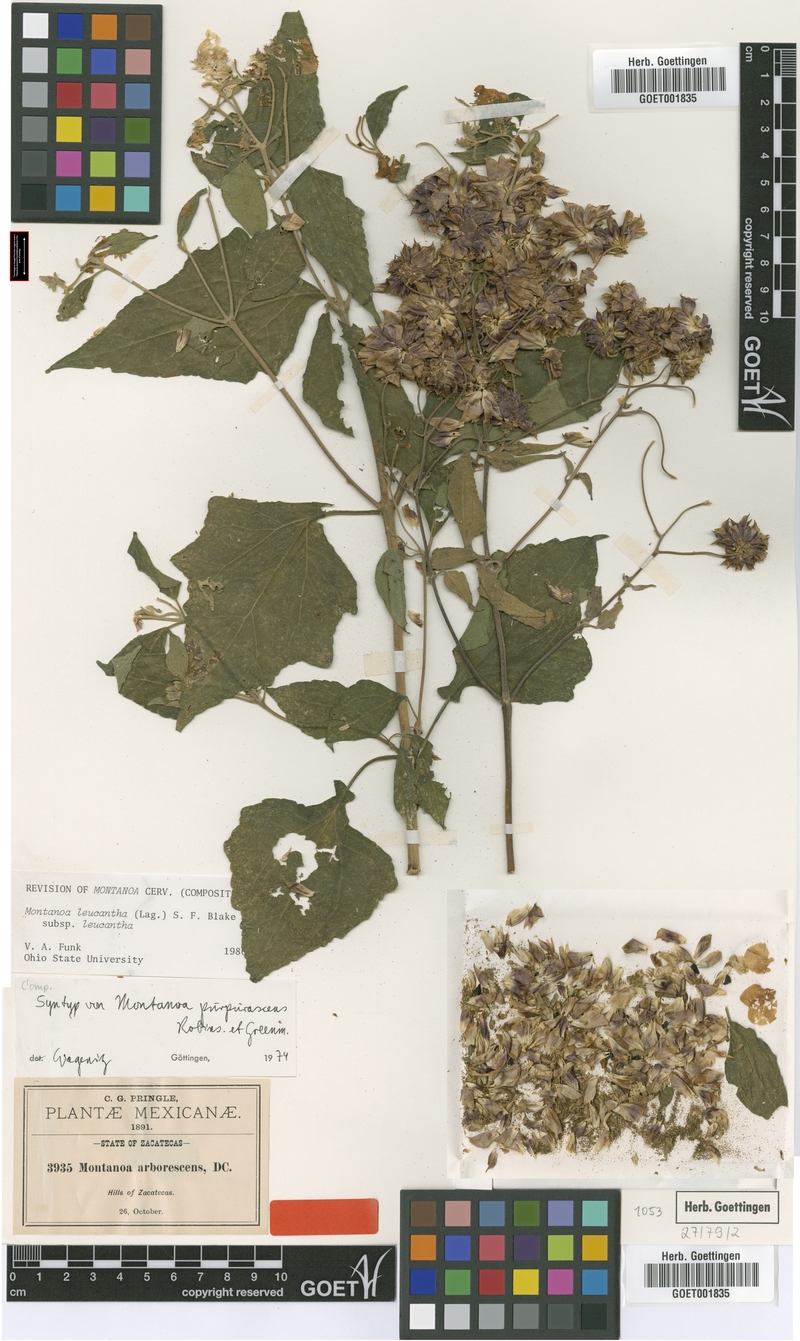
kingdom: Plantae
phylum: Tracheophyta
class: Magnoliopsida
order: Asterales
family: Asteraceae
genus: Montanoa
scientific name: Montanoa leucantha
